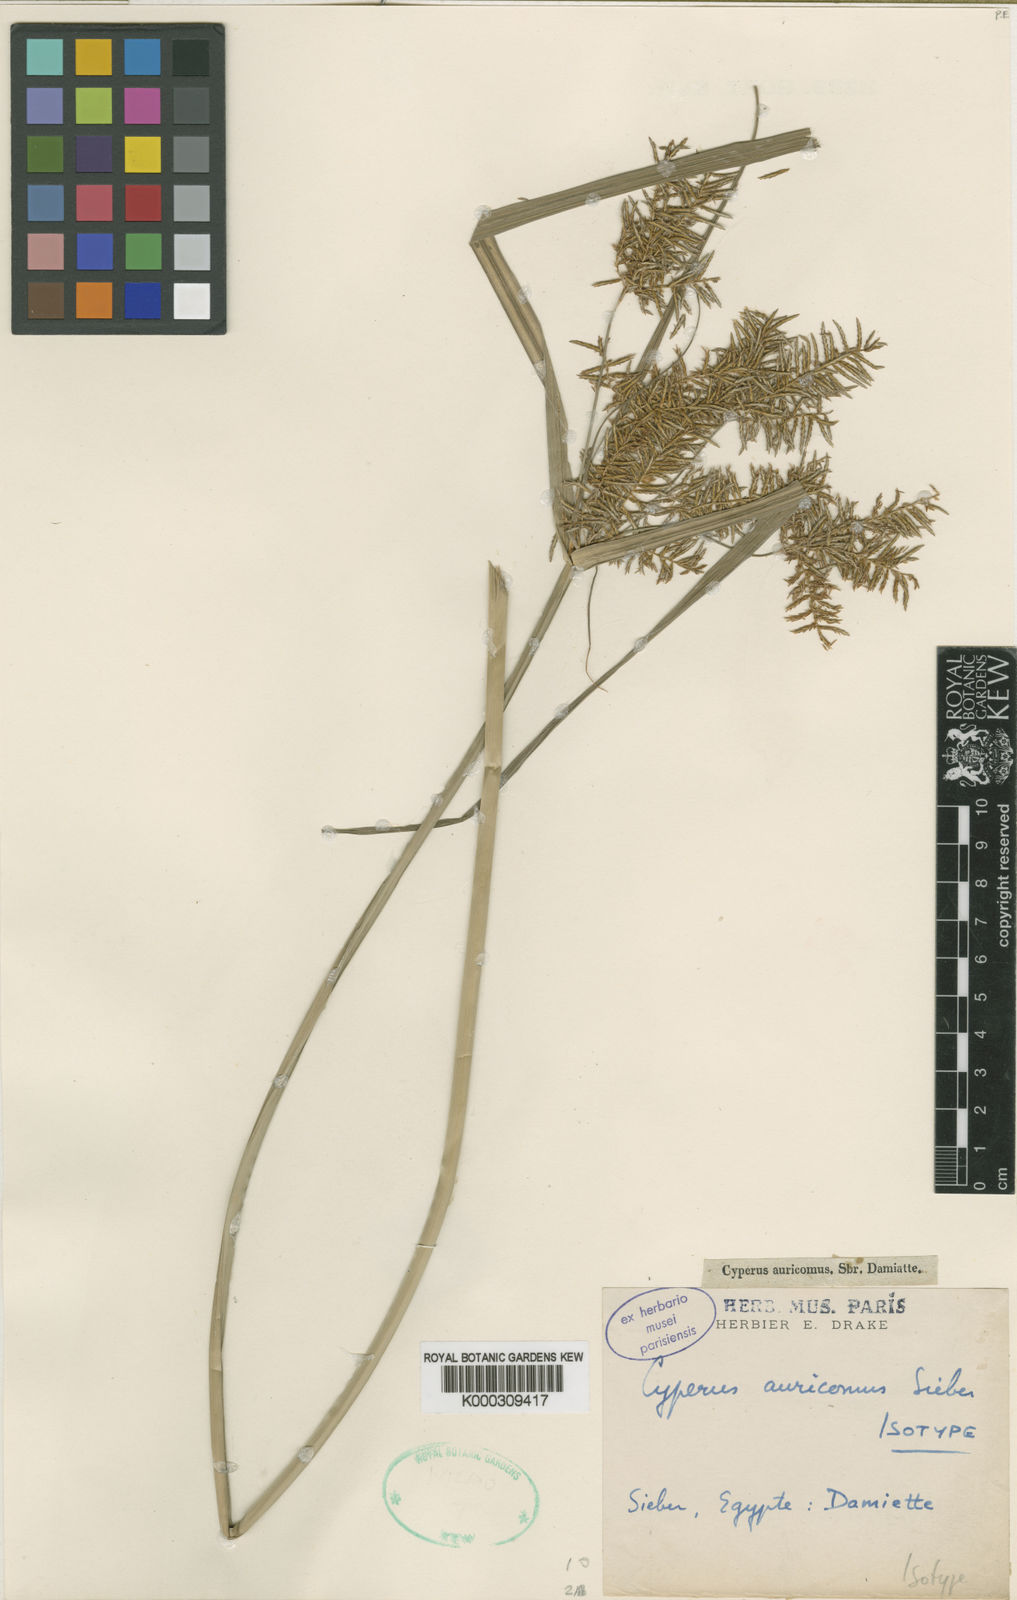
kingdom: Plantae
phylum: Tracheophyta
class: Liliopsida
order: Poales
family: Cyperaceae
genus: Cyperus
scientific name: Cyperus digitatus
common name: Finger flatsedge
